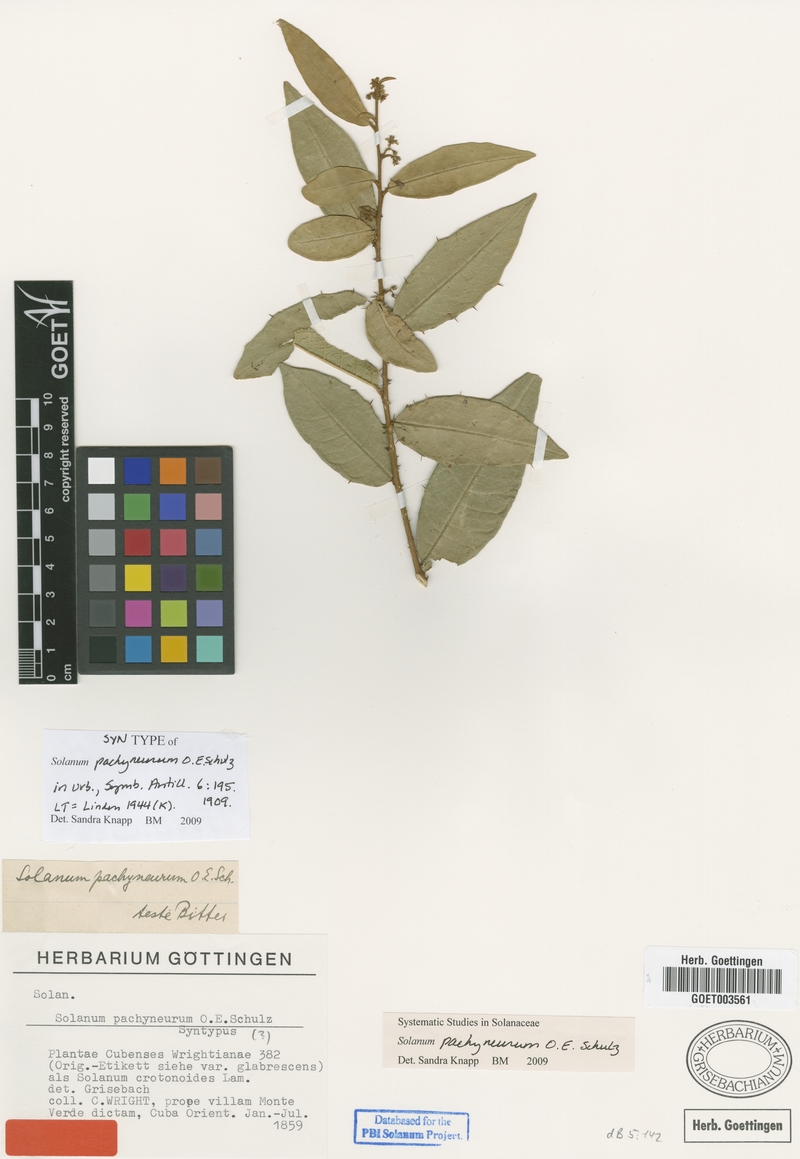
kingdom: Plantae
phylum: Tracheophyta
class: Magnoliopsida
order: Solanales
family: Solanaceae
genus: Solanum
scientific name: Solanum pachyneurum
